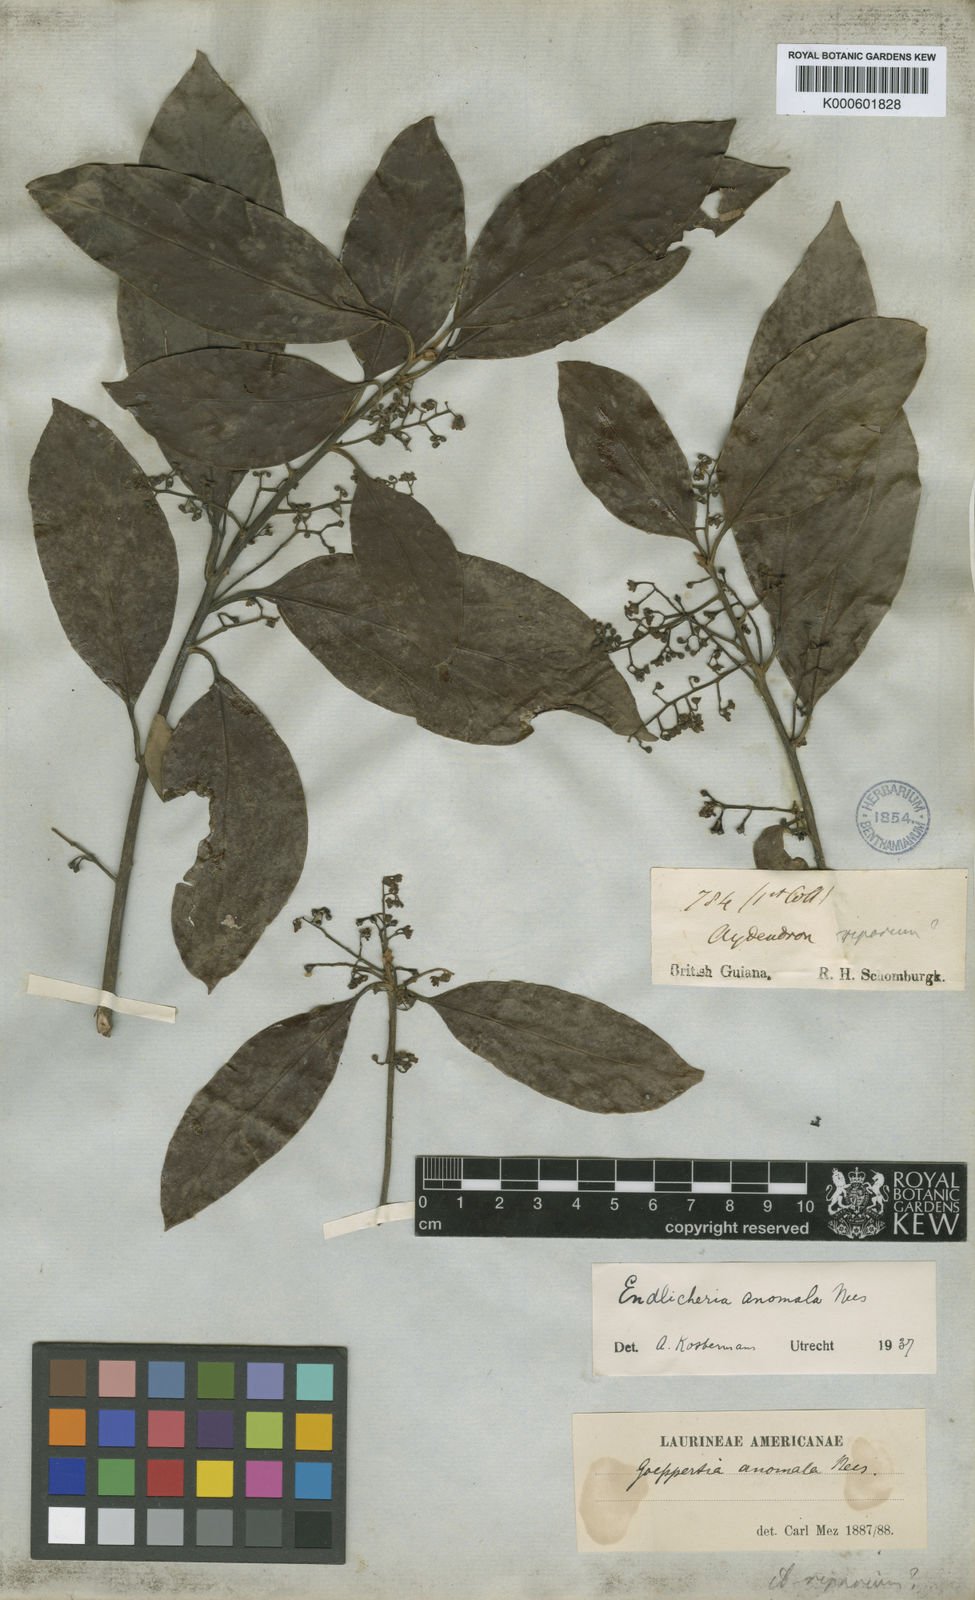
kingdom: Plantae
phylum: Tracheophyta
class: Magnoliopsida
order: Laurales
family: Lauraceae
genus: Endlicheria
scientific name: Endlicheria anomala
